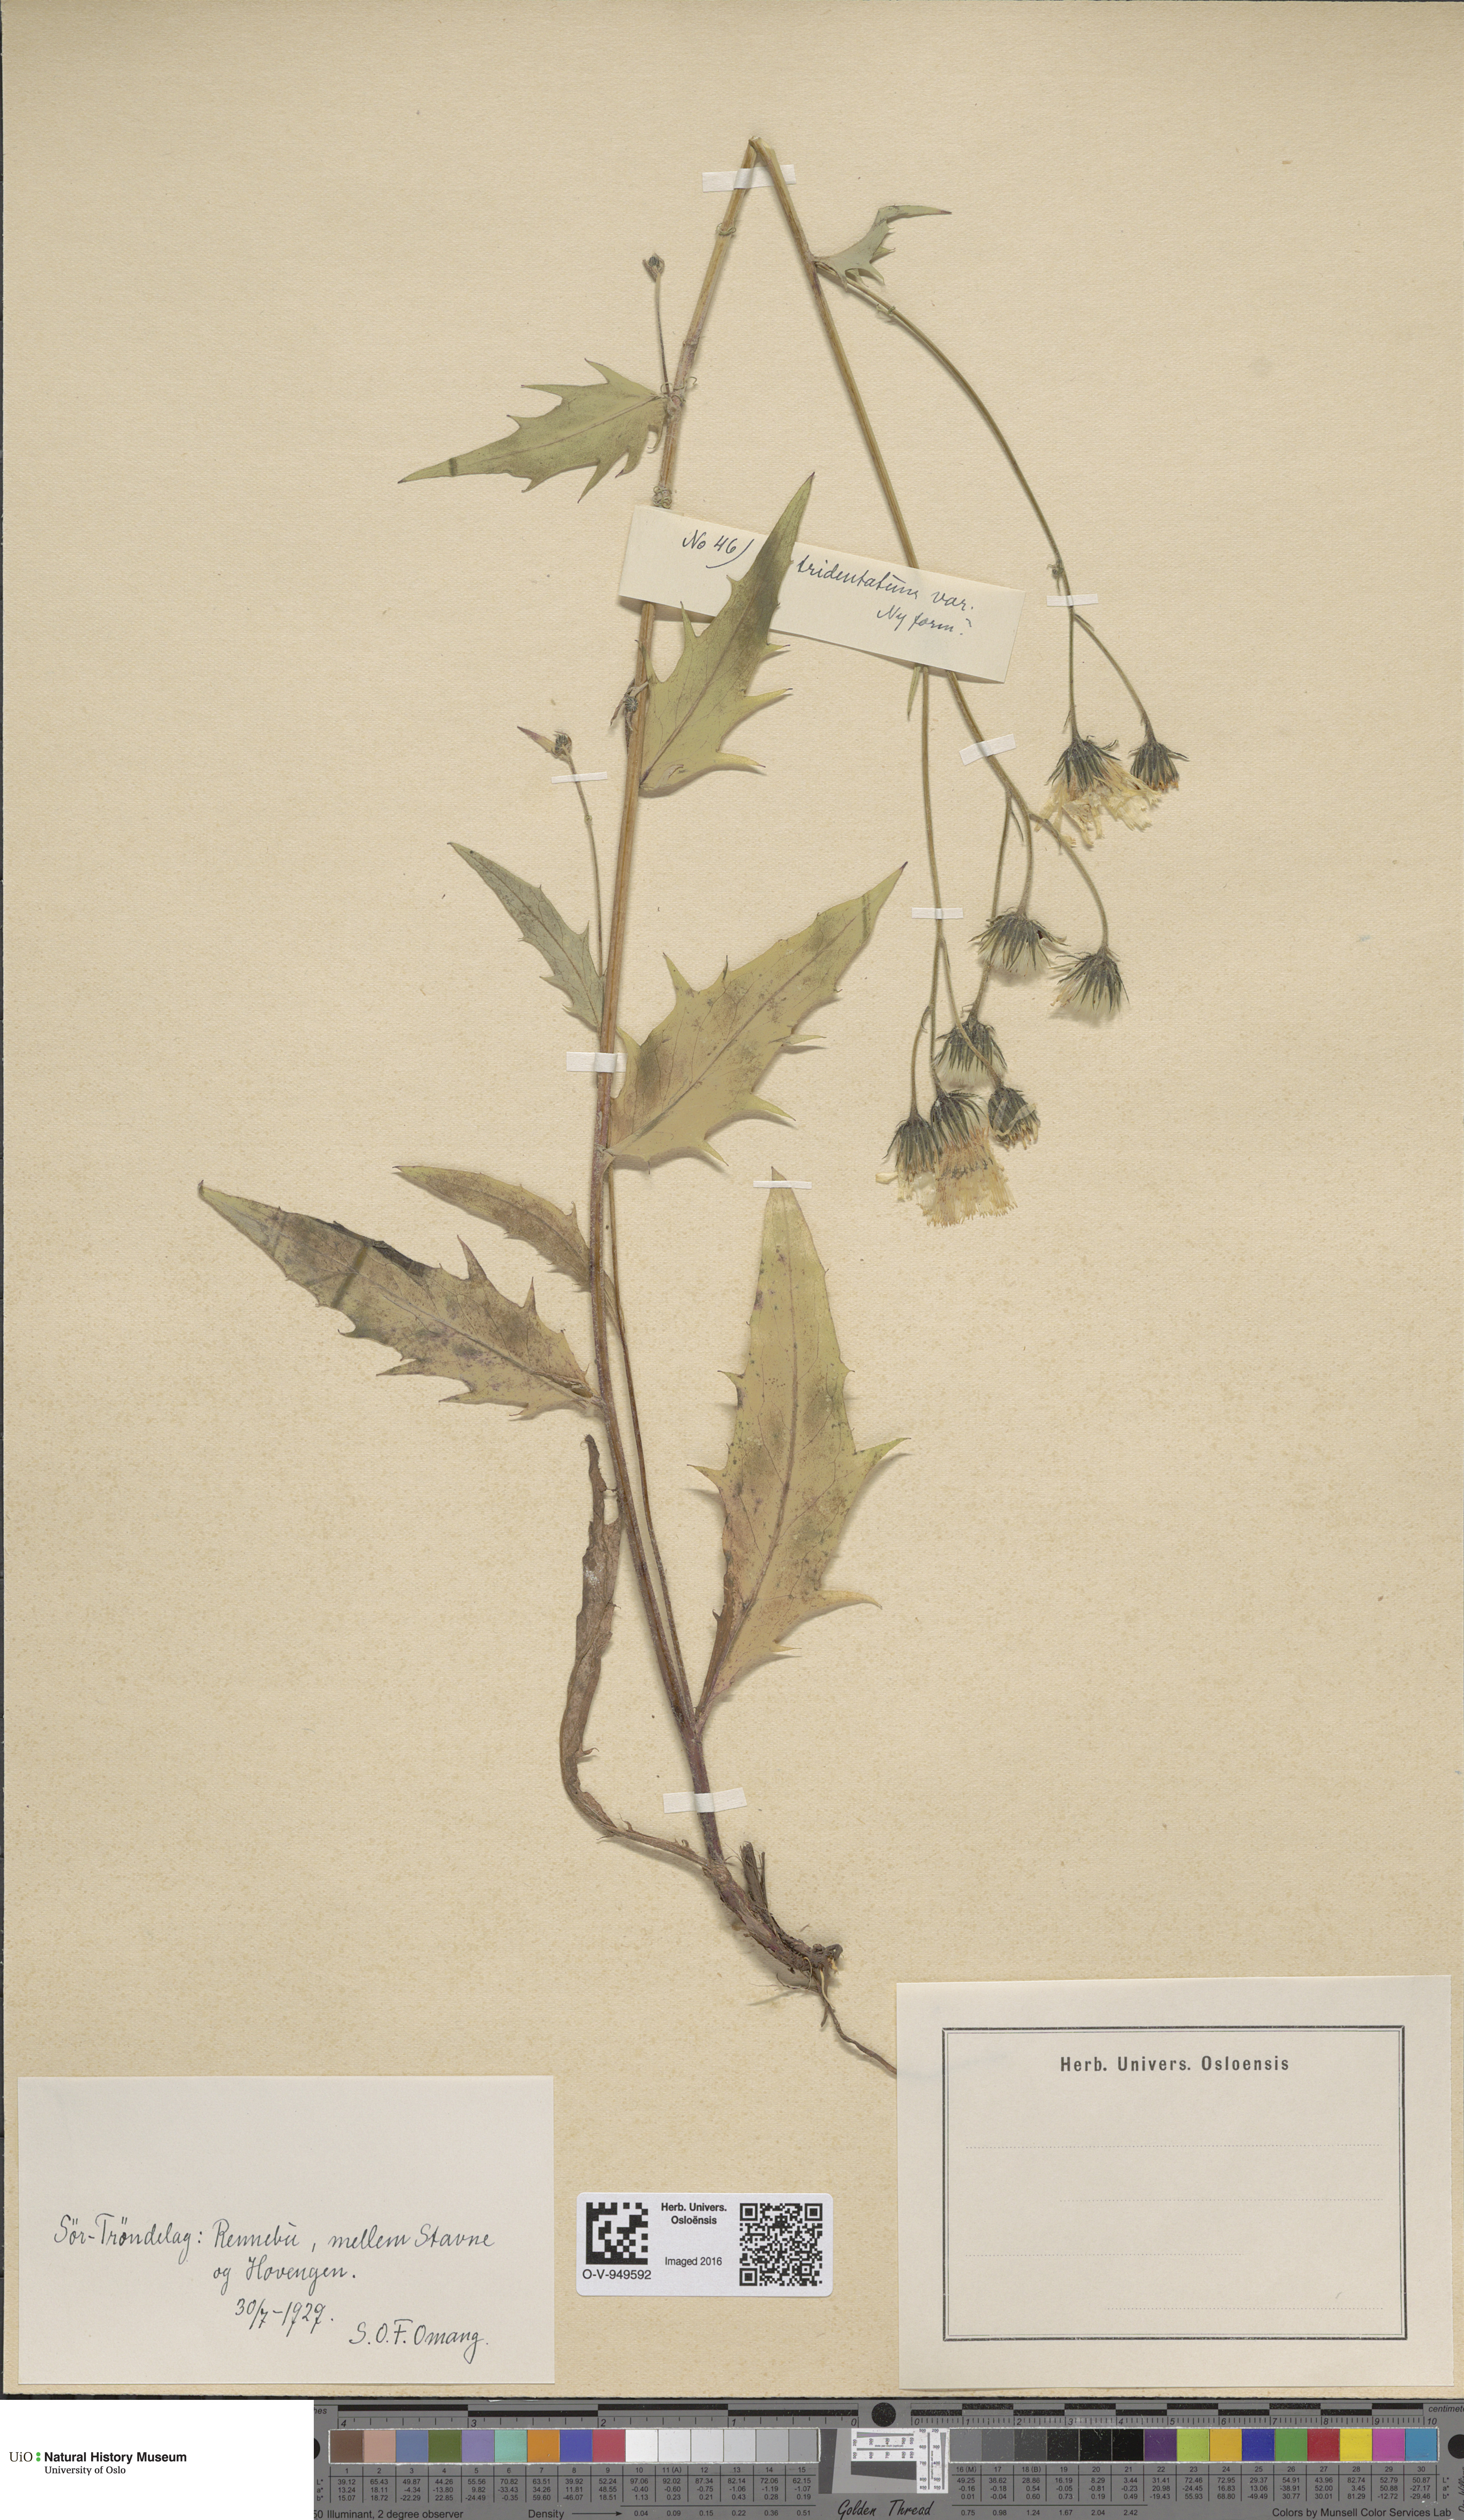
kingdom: Plantae
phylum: Tracheophyta
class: Magnoliopsida
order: Asterales
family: Asteraceae
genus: Hieracium
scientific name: Hieracium
